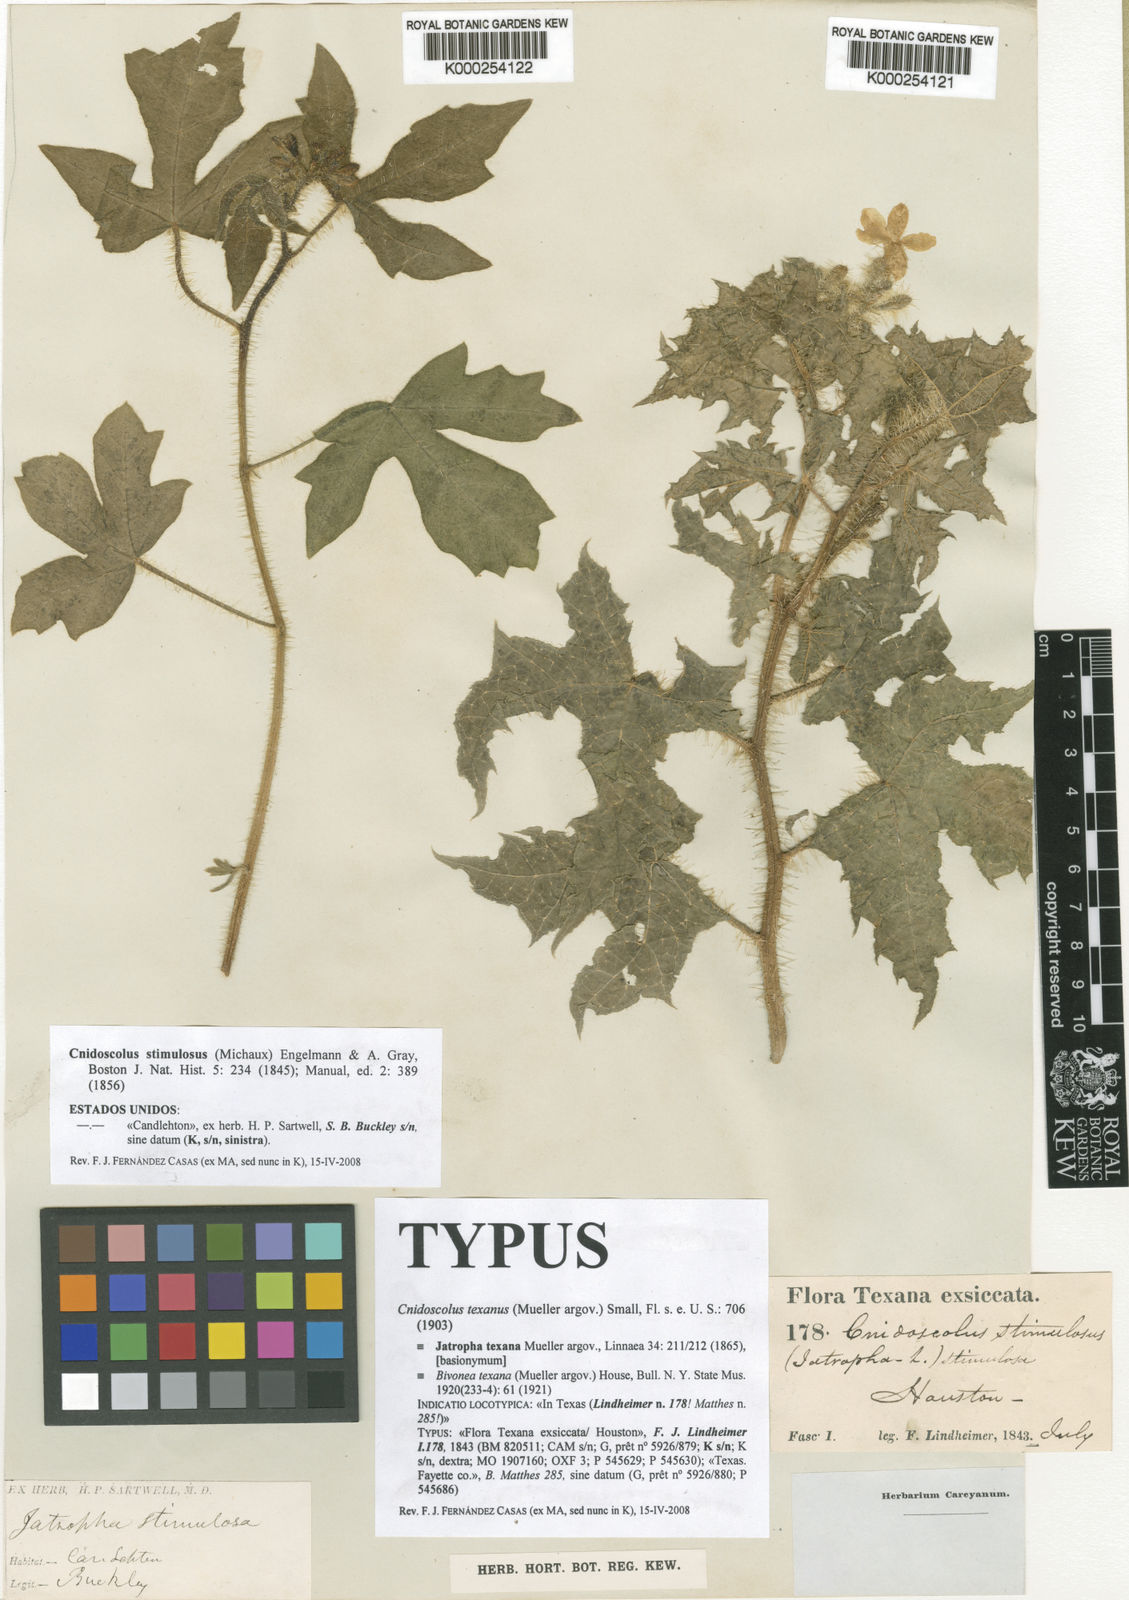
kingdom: Plantae
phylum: Tracheophyta
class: Magnoliopsida
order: Malpighiales
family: Euphorbiaceae
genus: Cnidoscolus
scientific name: Cnidoscolus texanus
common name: Texas bull-nettle
